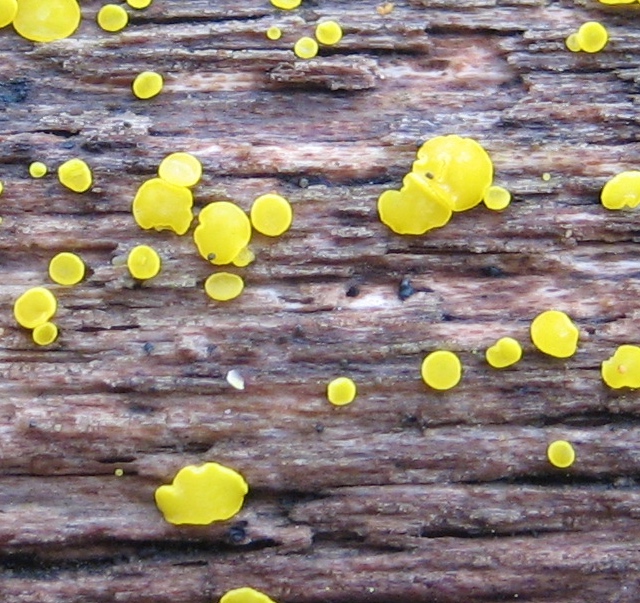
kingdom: Fungi
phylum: Ascomycota
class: Leotiomycetes
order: Helotiales
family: Pezizellaceae
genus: Calycina
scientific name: Calycina citrina
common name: almindelig gulskive
